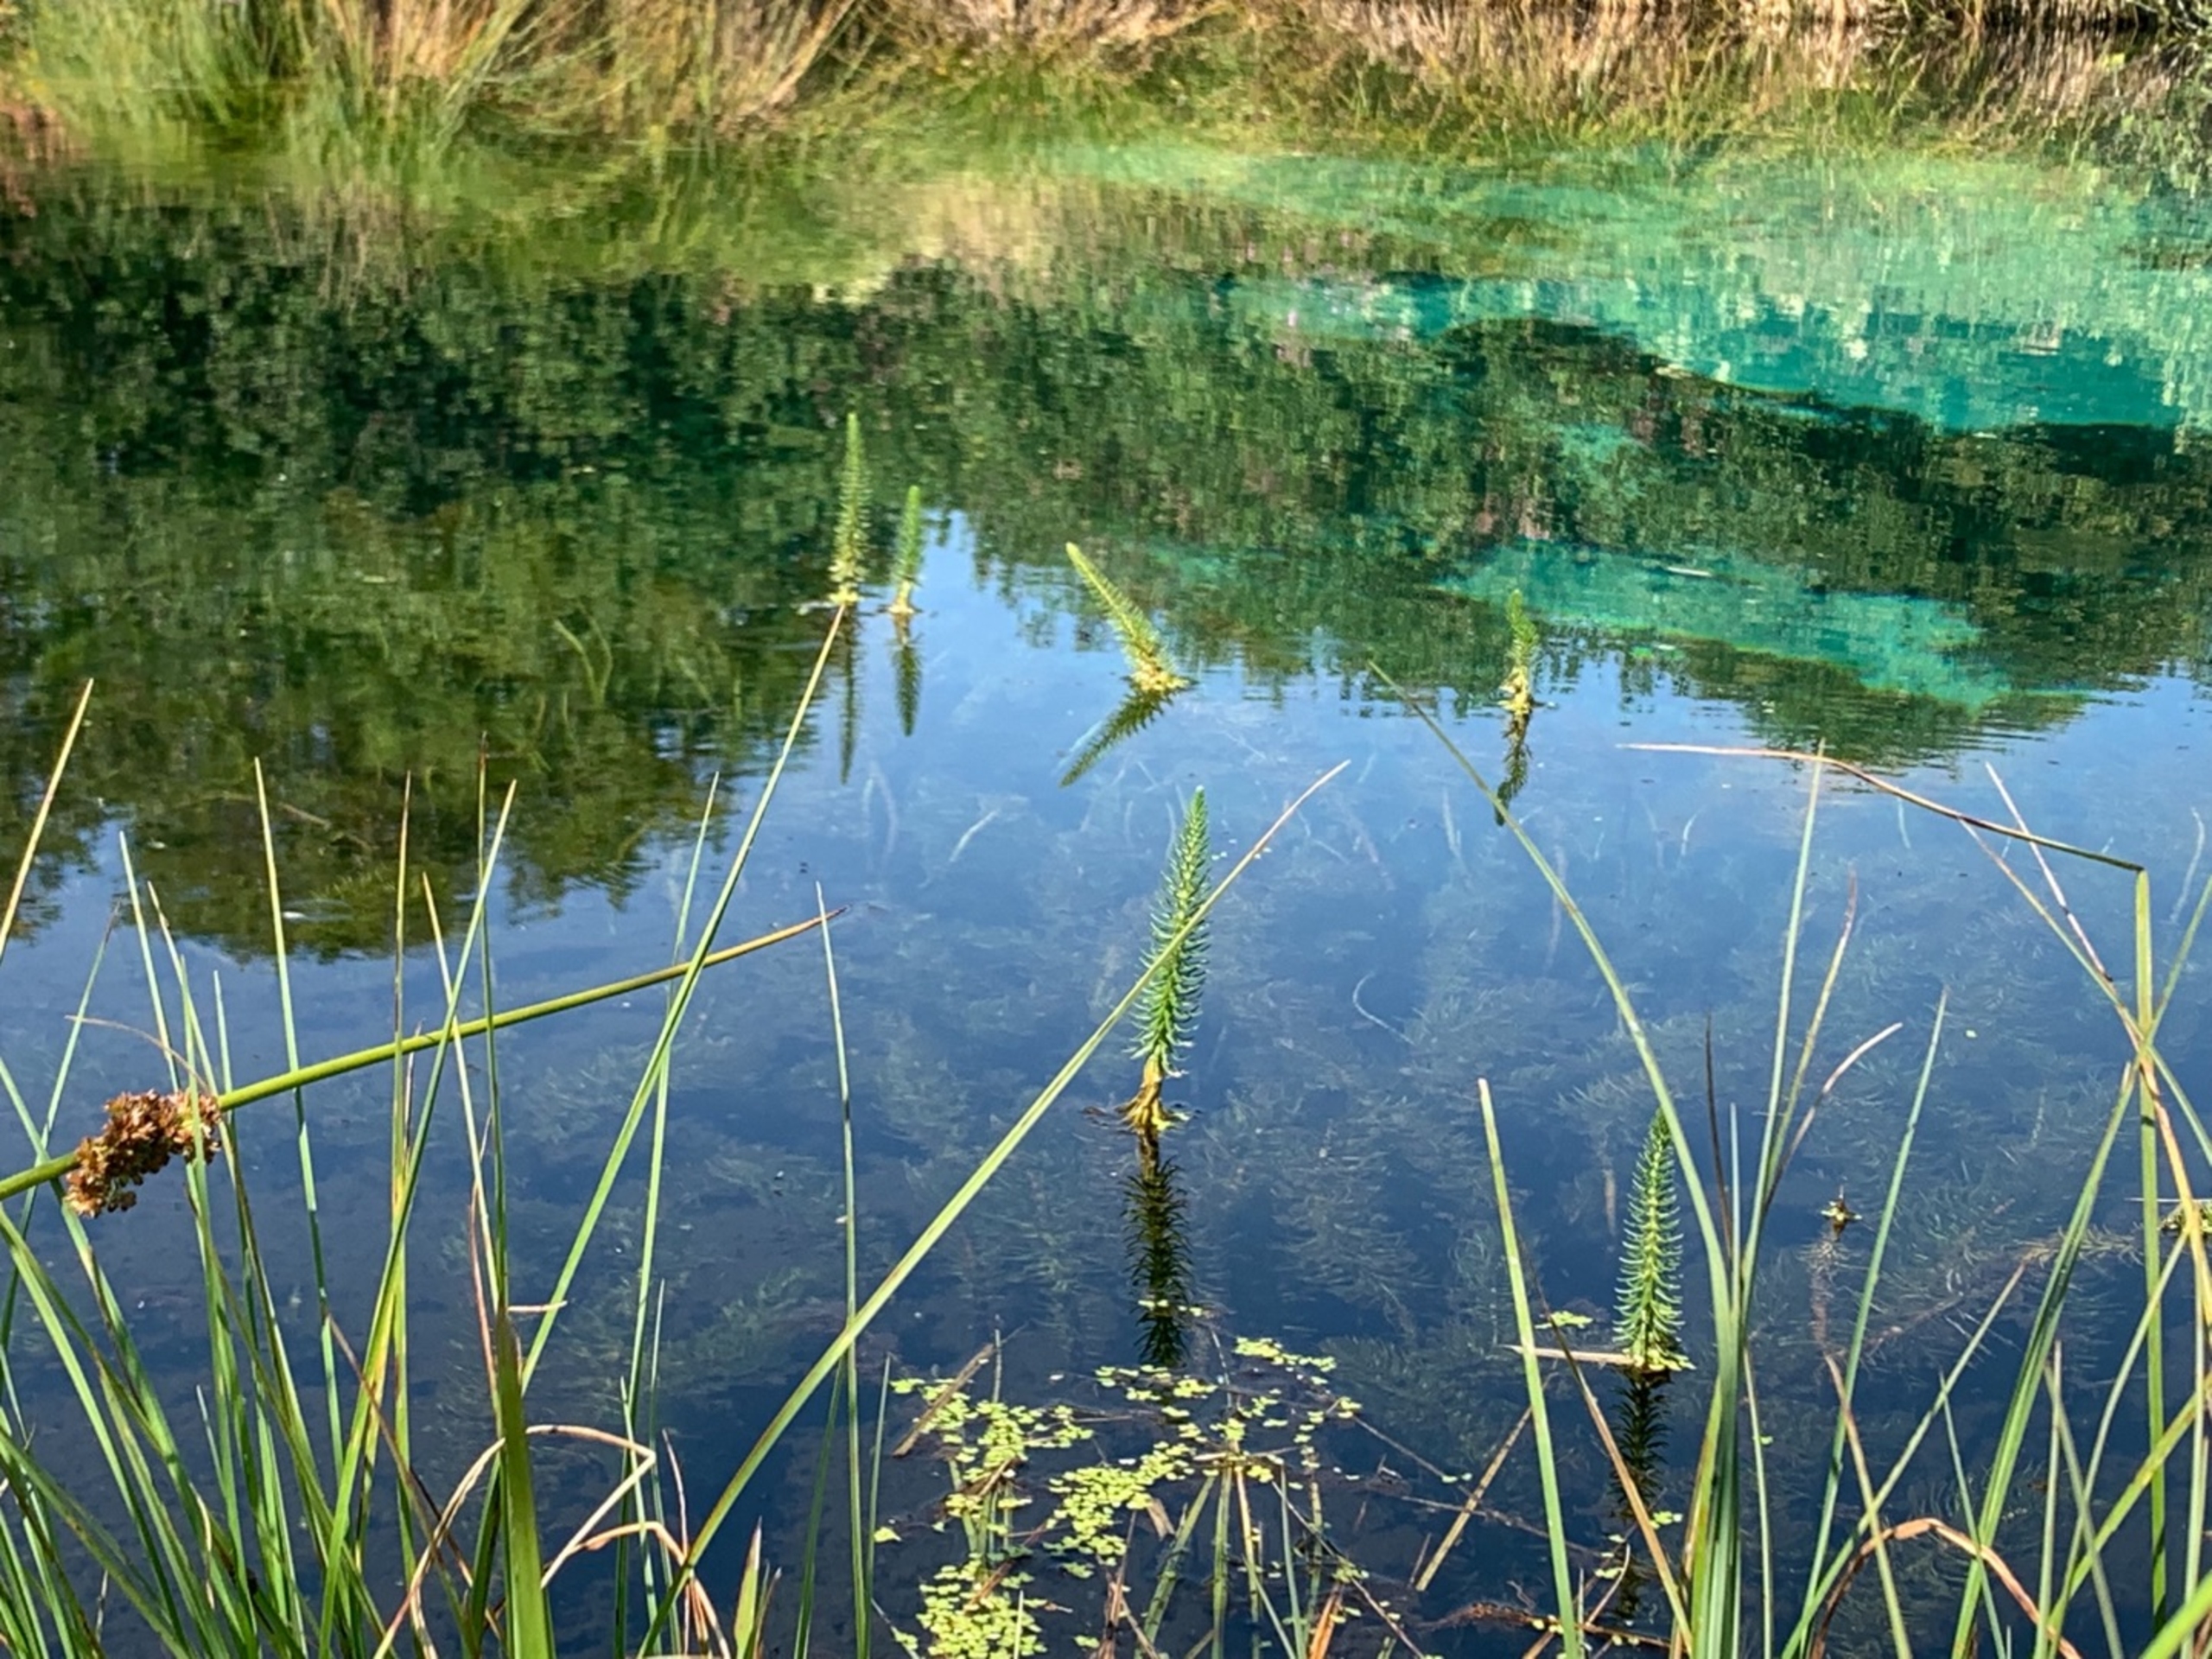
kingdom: Plantae
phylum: Tracheophyta
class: Magnoliopsida
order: Lamiales
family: Plantaginaceae
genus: Hippuris
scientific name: Hippuris vulgaris
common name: Vandspir
